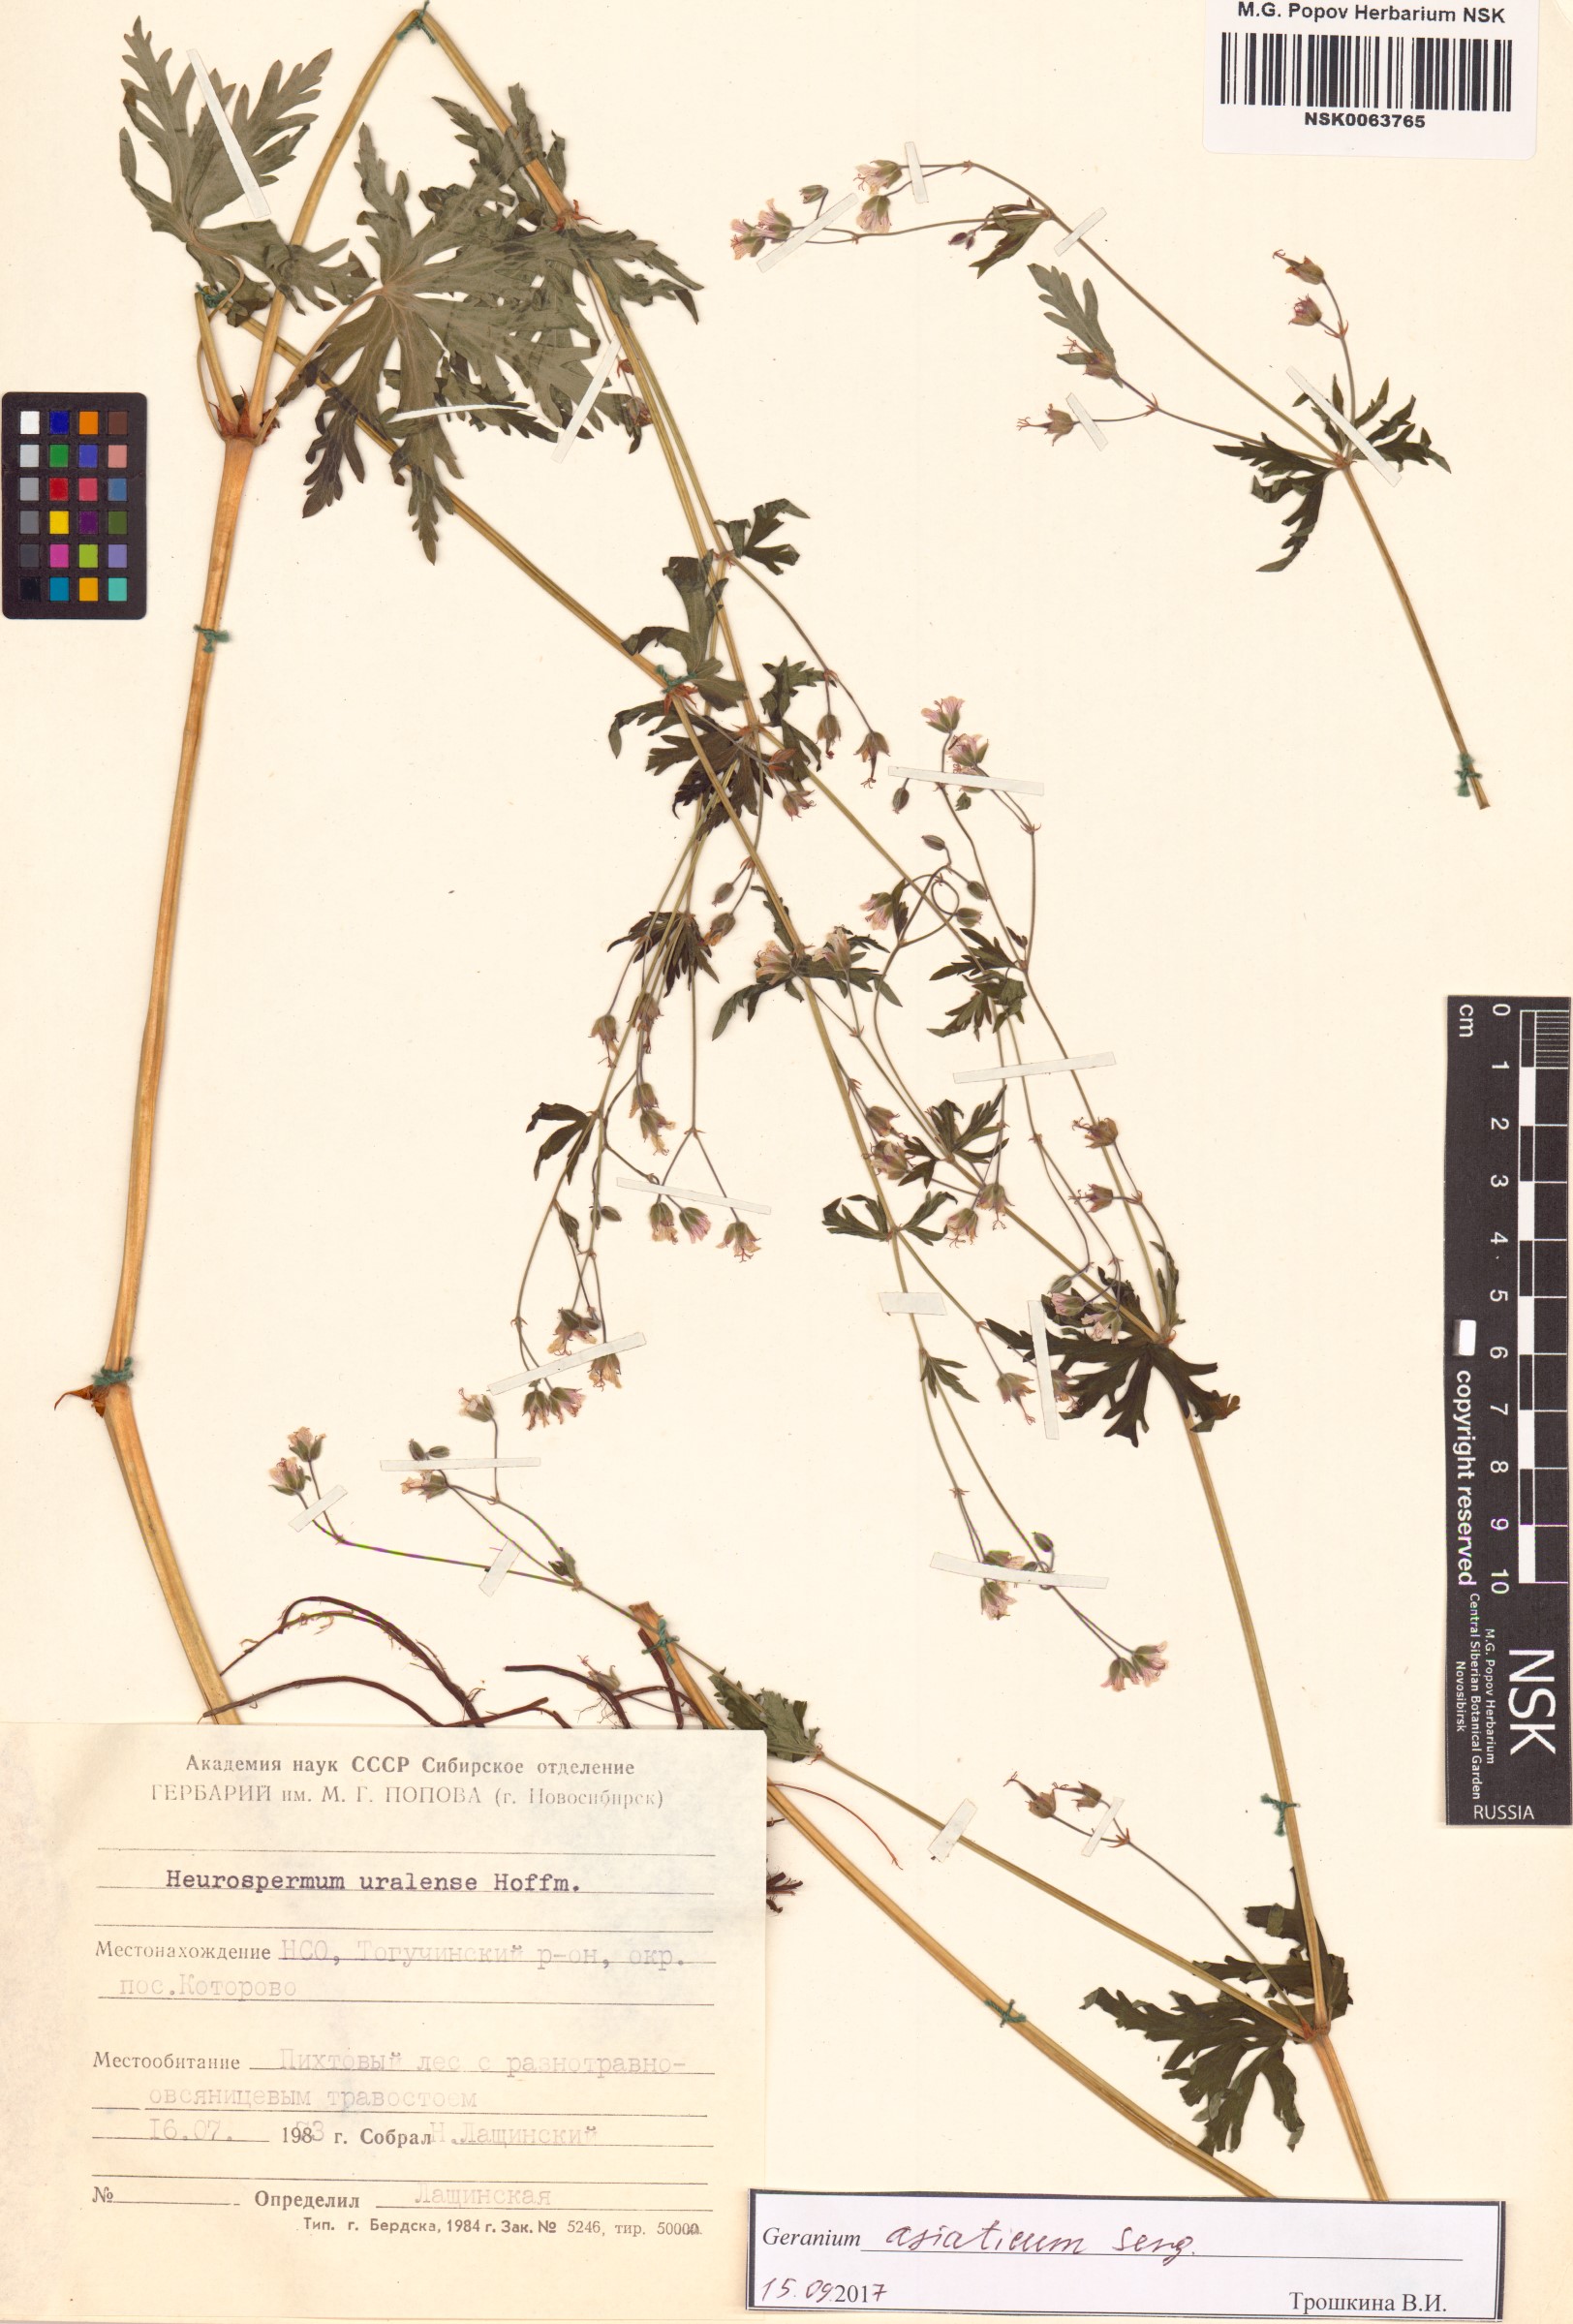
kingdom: Plantae
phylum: Tracheophyta
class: Magnoliopsida
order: Geraniales
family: Geraniaceae
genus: Geranium
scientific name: Geranium pseudosibiricum
